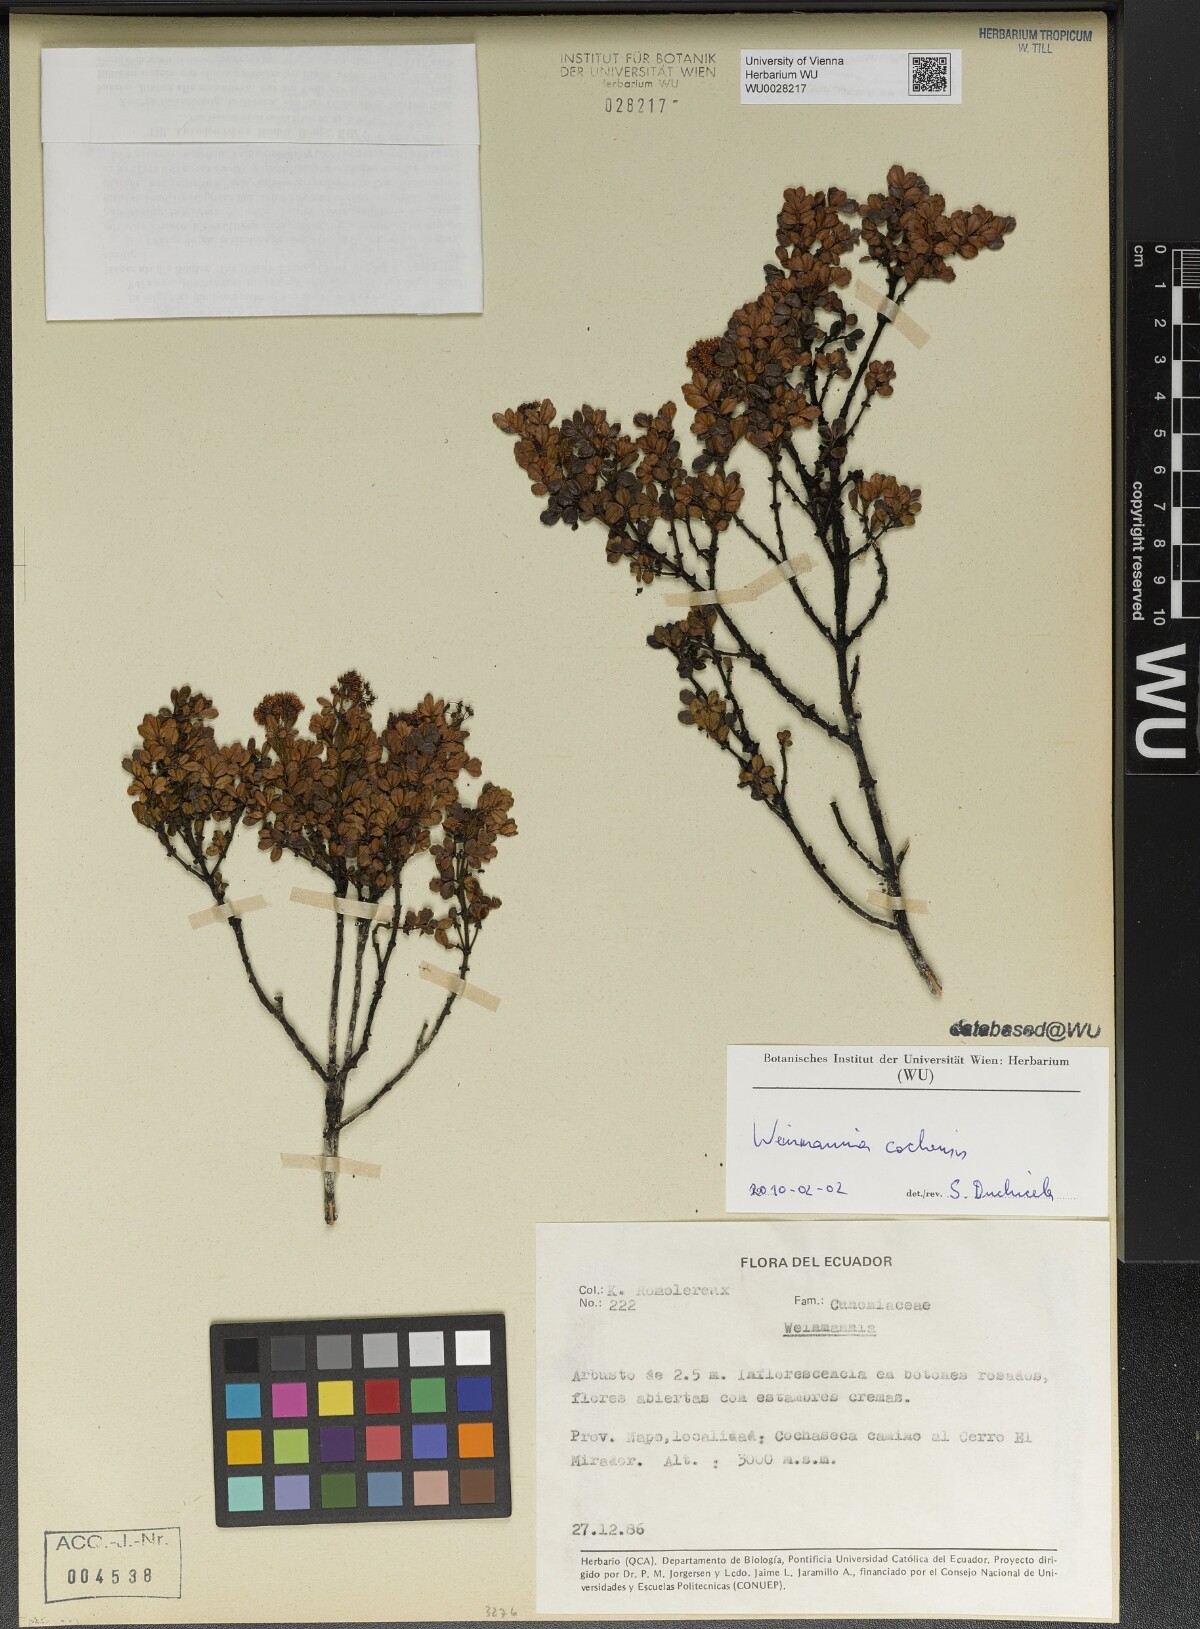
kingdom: Plantae
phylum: Tracheophyta
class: Magnoliopsida
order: Oxalidales
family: Cunoniaceae
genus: Weinmannia
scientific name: Weinmannia cochensis
